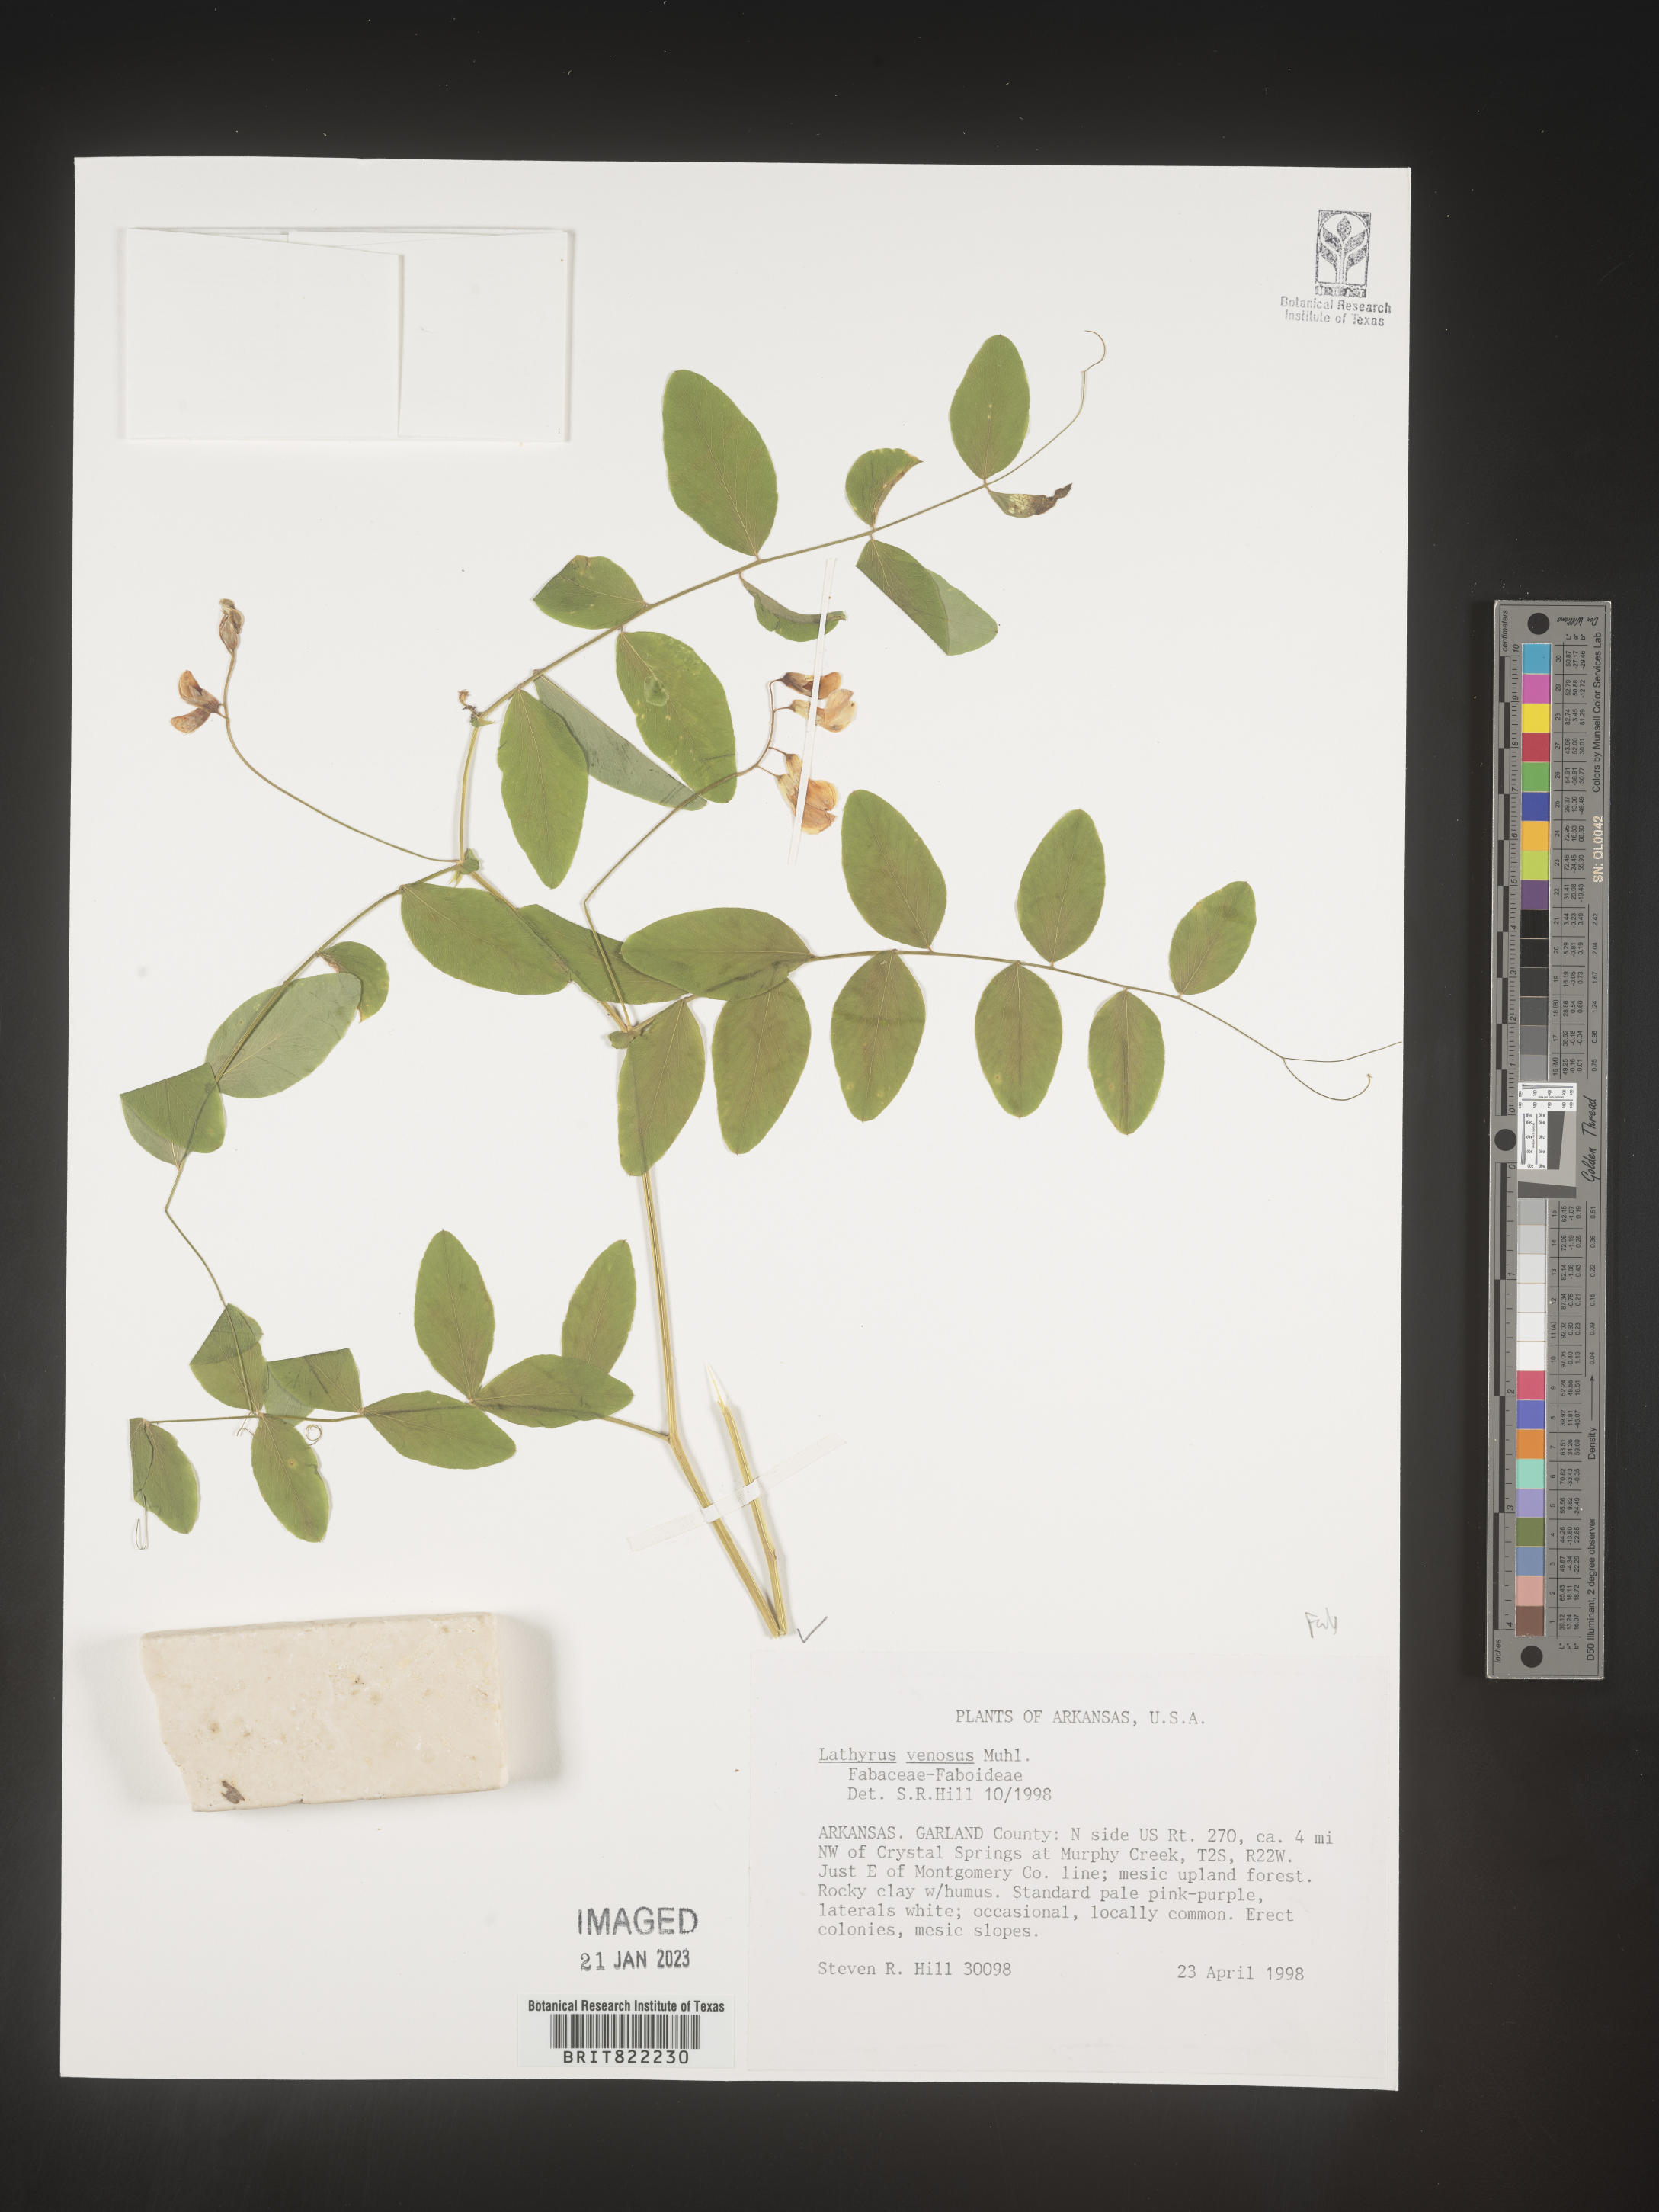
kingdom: Plantae
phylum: Tracheophyta
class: Magnoliopsida
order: Fabales
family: Fabaceae
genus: Lathyrus
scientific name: Lathyrus venosus
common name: Forest-pea
